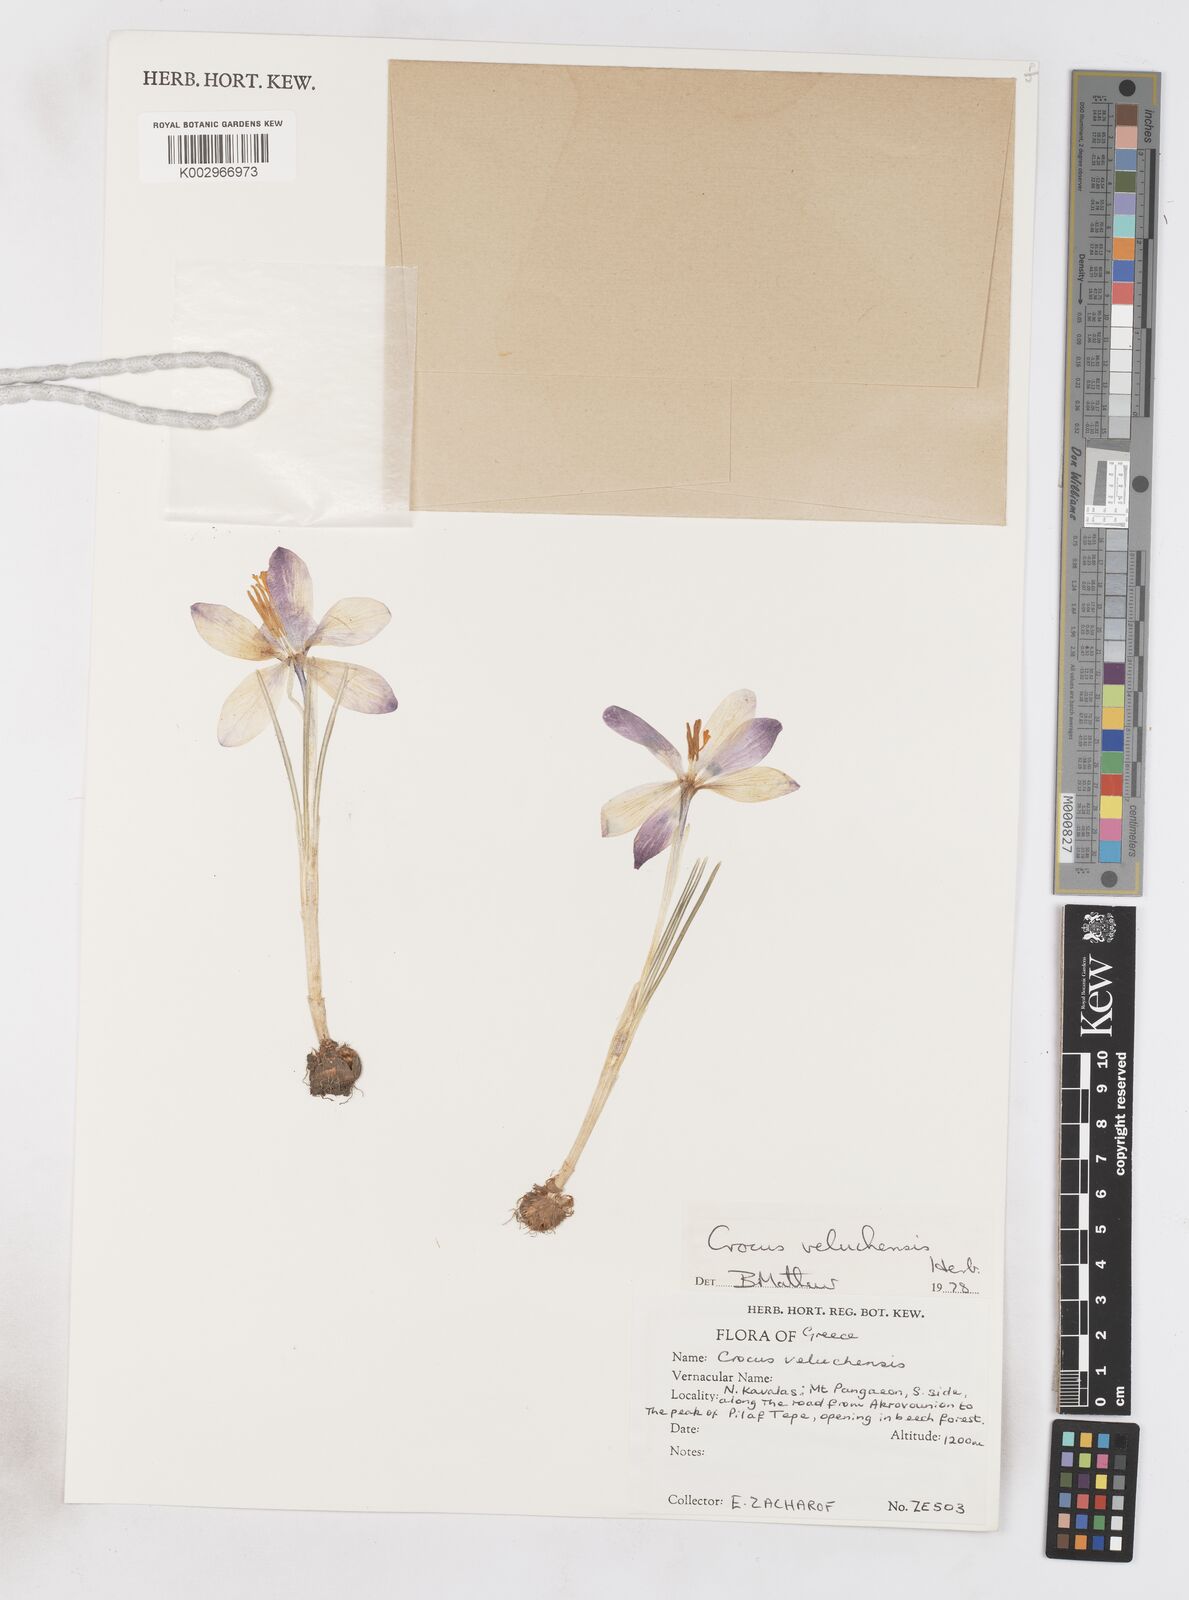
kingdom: Plantae
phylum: Tracheophyta
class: Liliopsida
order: Asparagales
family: Iridaceae
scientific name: Iridaceae
